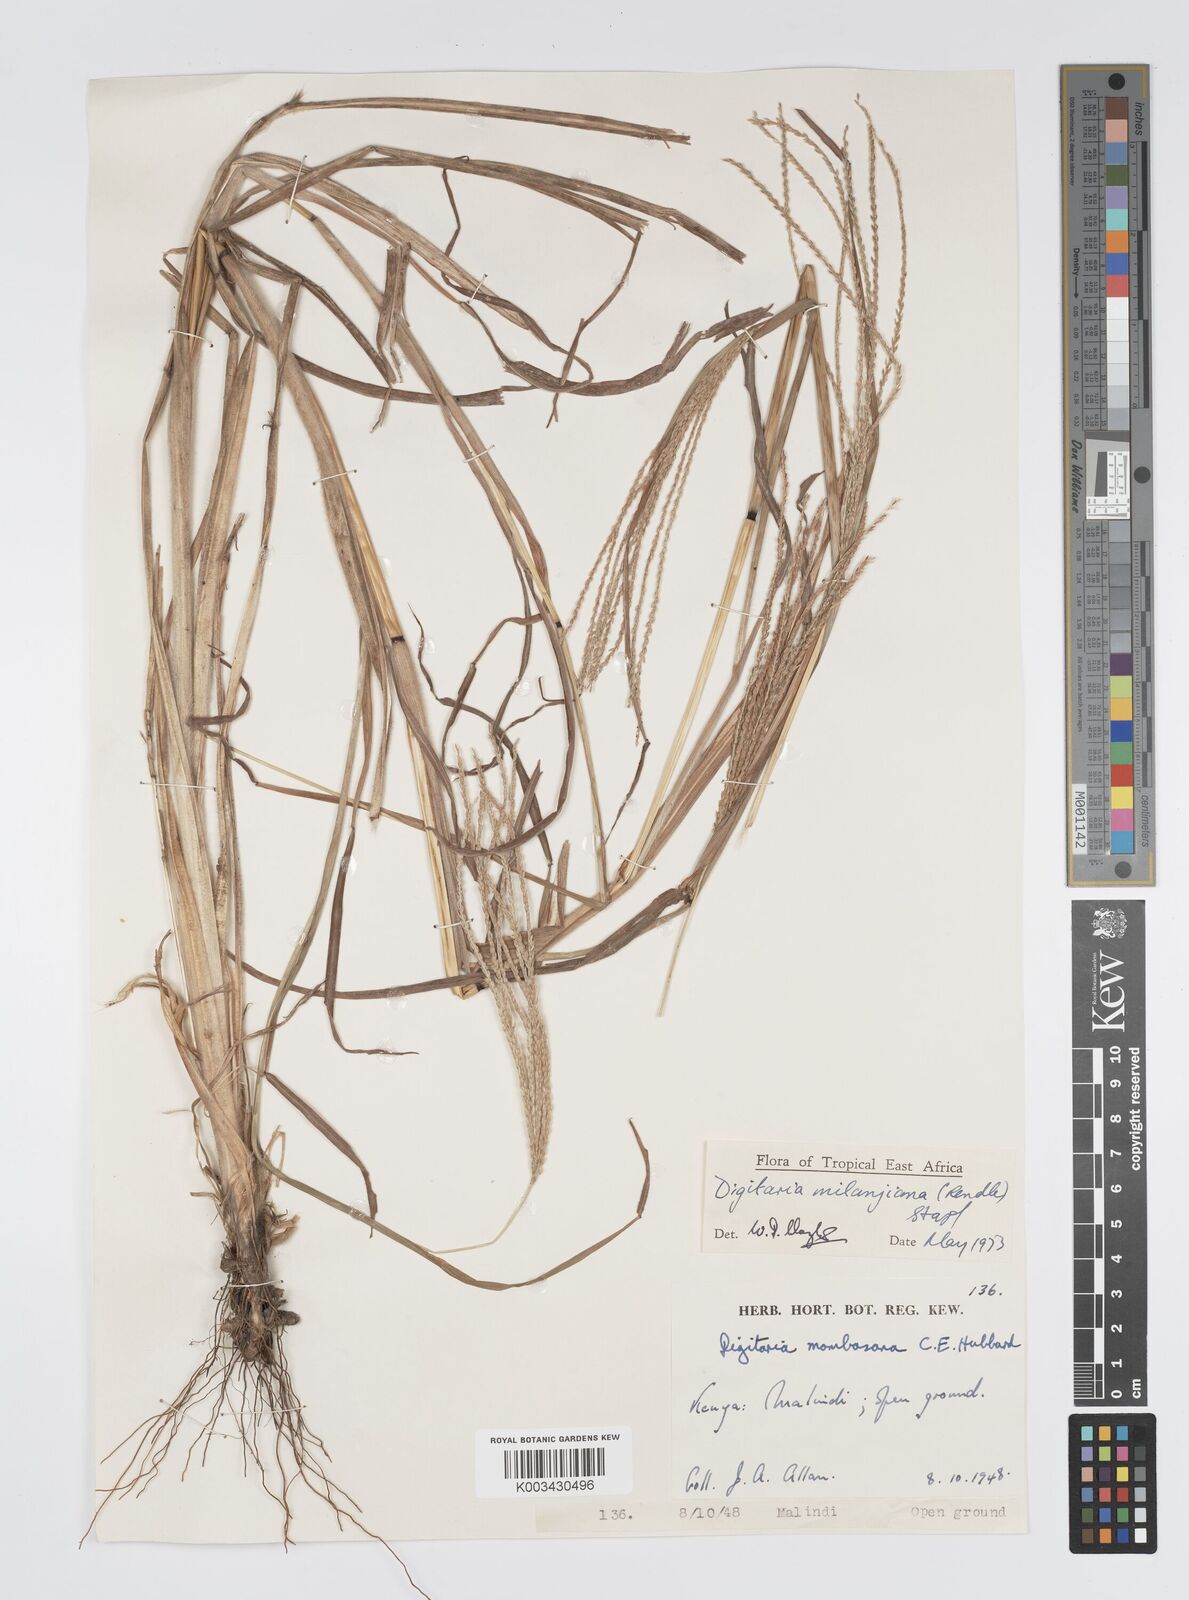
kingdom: Plantae
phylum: Tracheophyta
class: Liliopsida
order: Poales
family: Poaceae
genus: Digitaria
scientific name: Digitaria milanjiana
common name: Madagascar crabgrass
